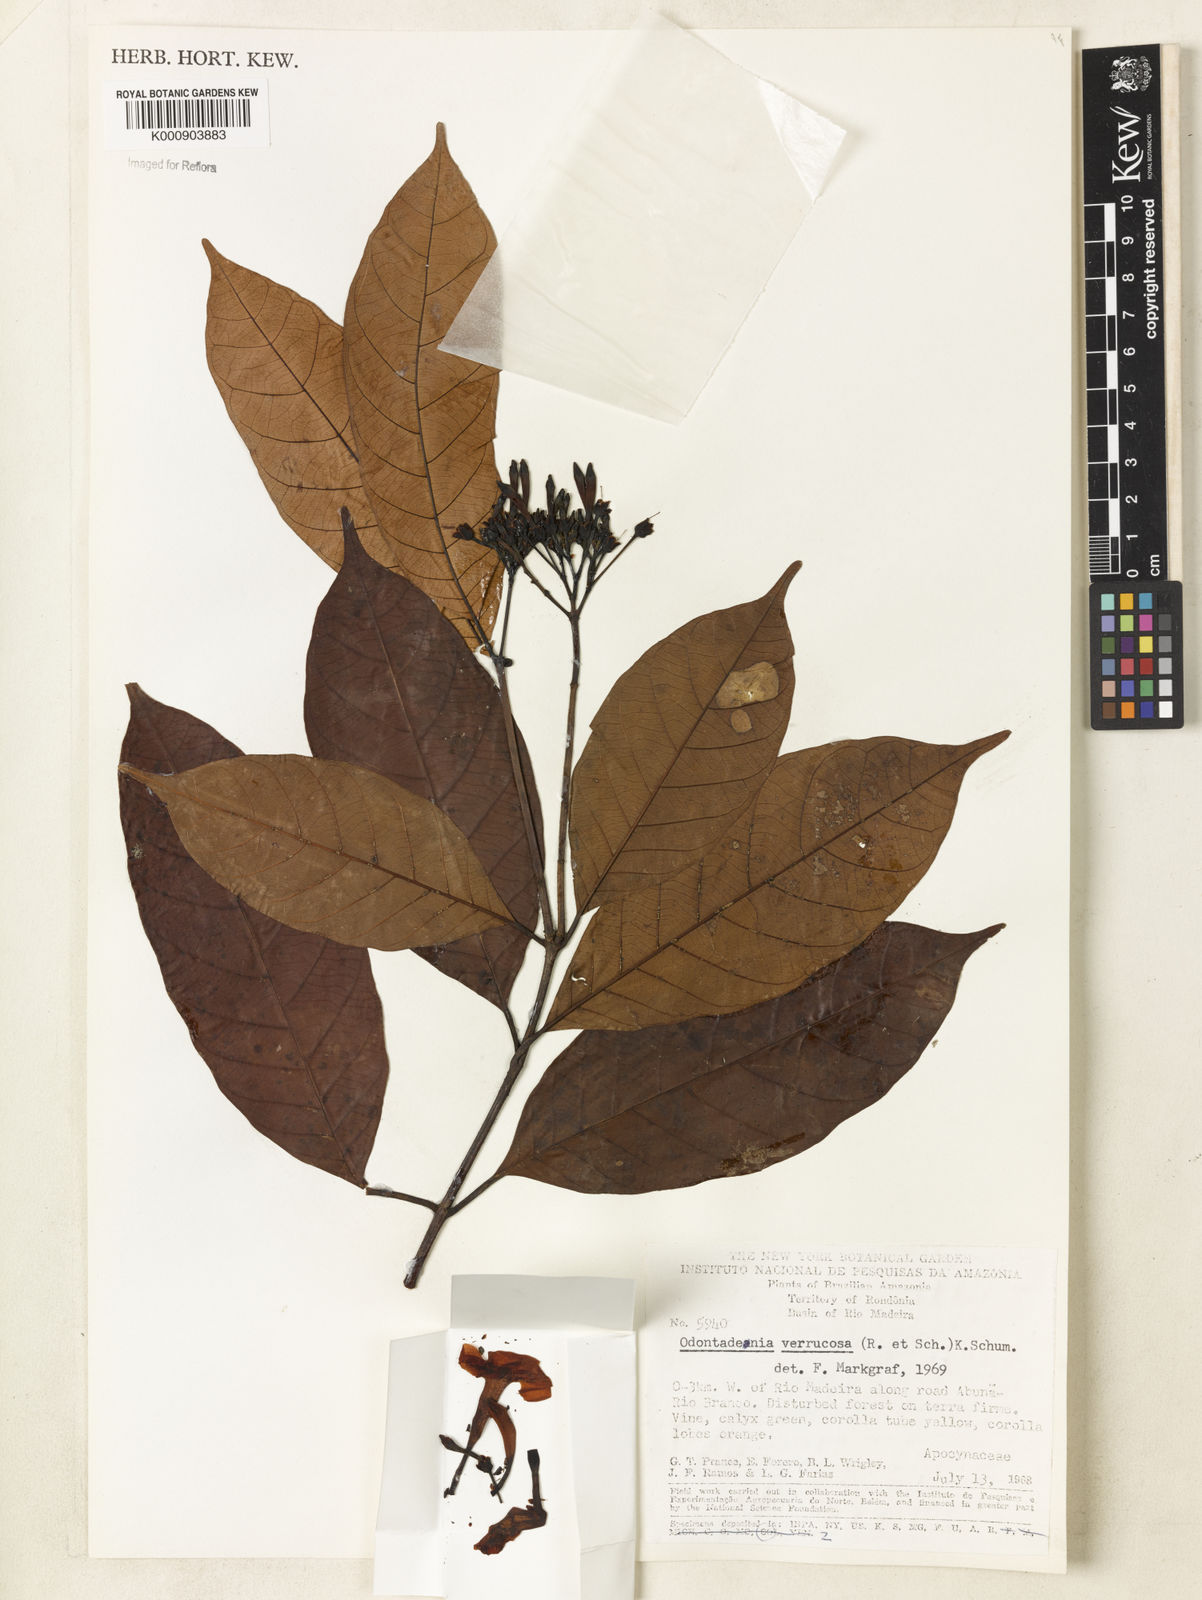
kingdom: Plantae
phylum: Tracheophyta
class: Magnoliopsida
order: Gentianales
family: Apocynaceae
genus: Odontadenia
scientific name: Odontadenia verrucosa
